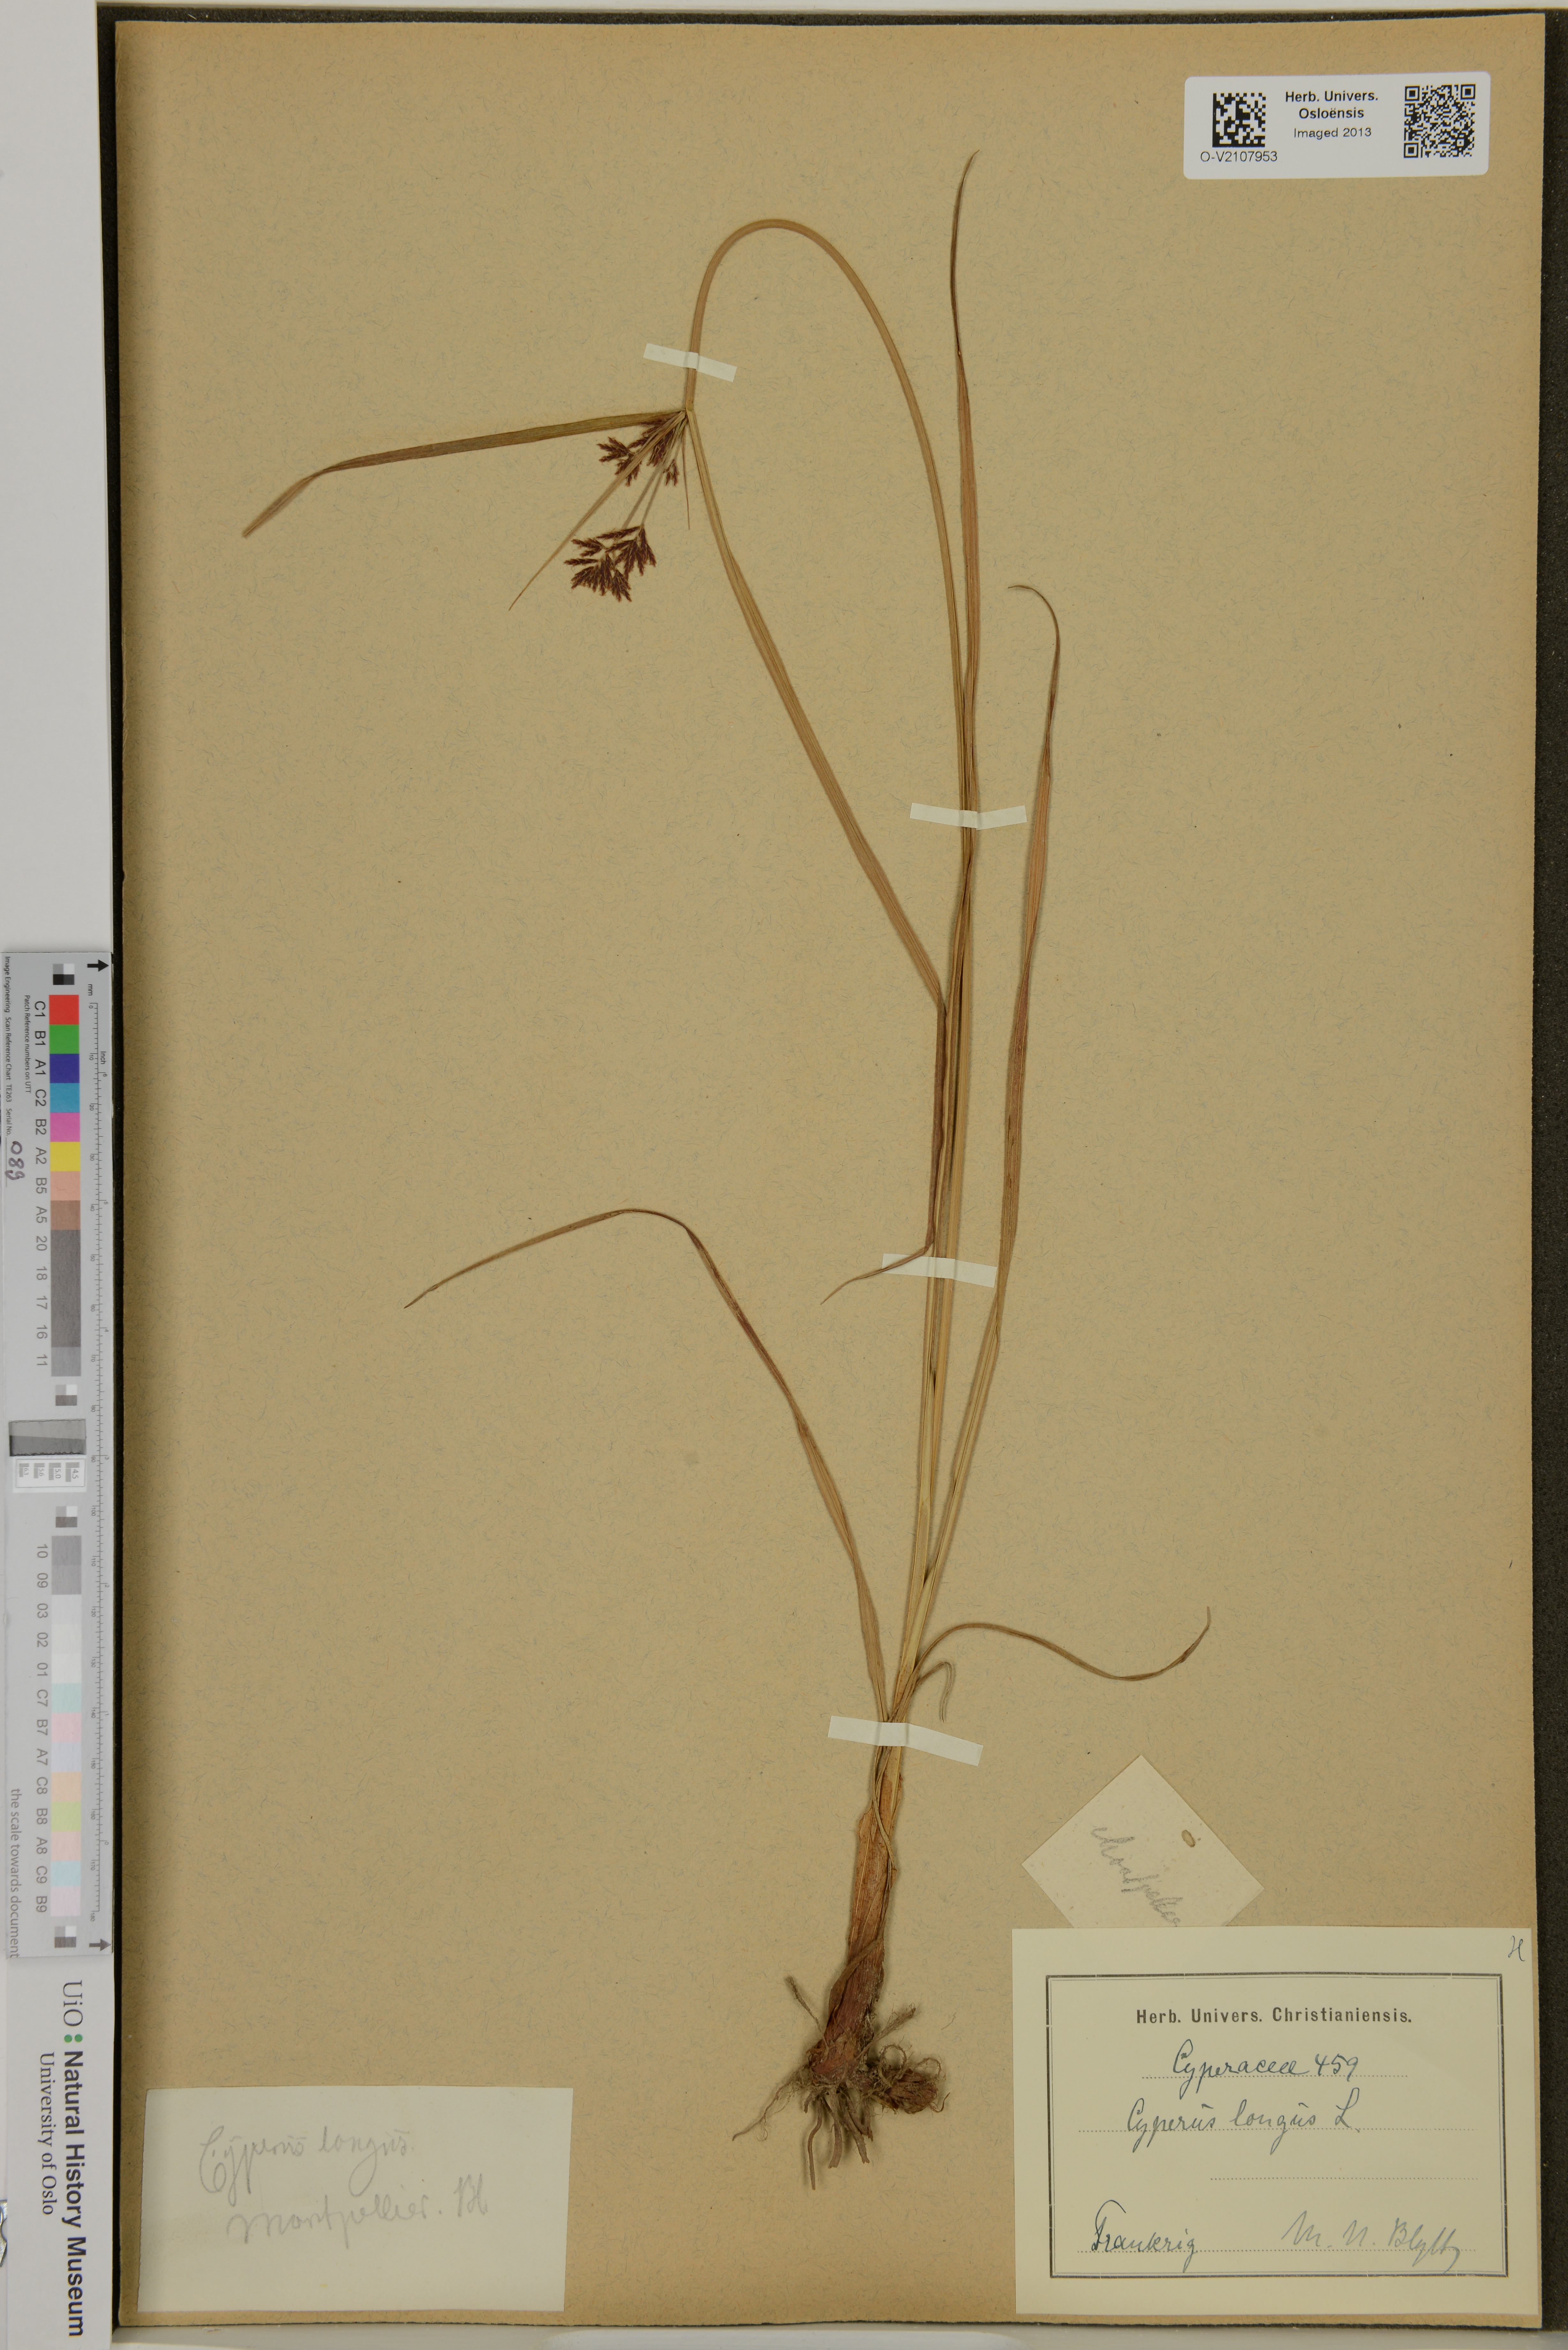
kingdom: Plantae
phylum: Tracheophyta
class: Liliopsida
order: Poales
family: Cyperaceae
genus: Cyperus
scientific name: Cyperus longus
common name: Galingale
